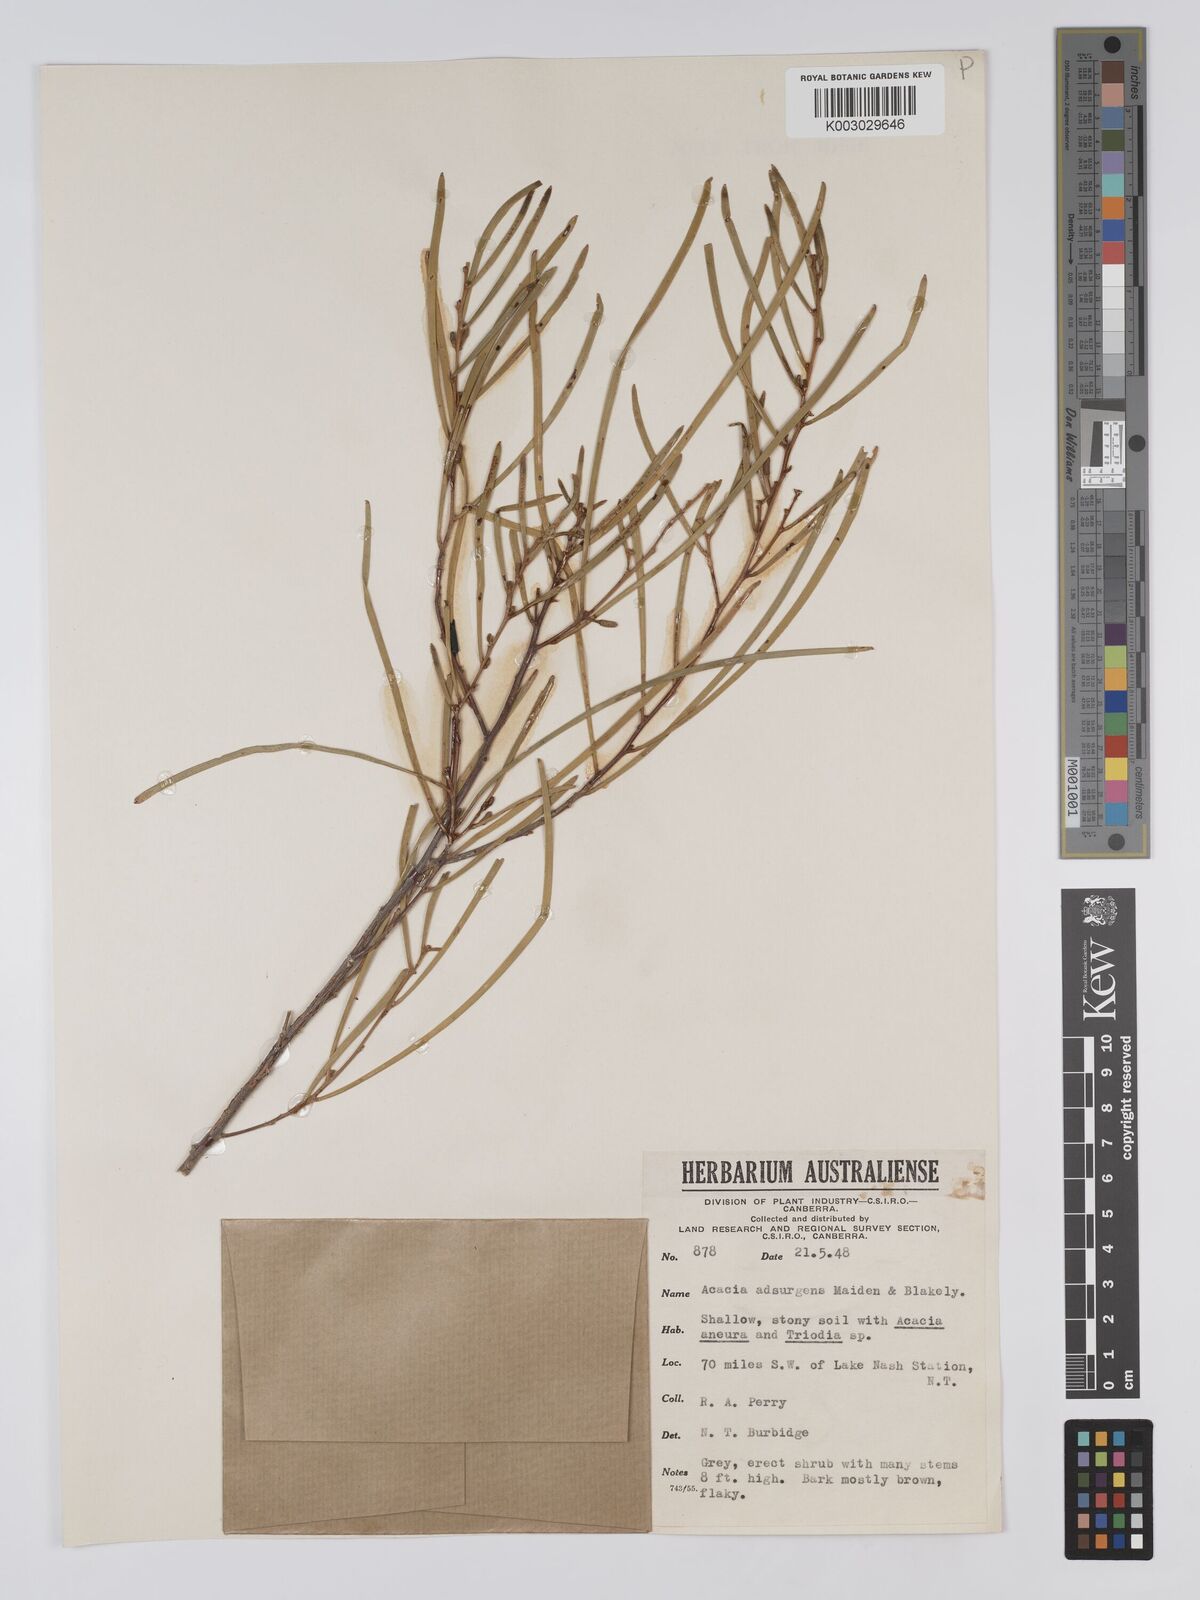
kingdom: Plantae
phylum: Tracheophyta
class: Magnoliopsida
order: Fabales
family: Fabaceae
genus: Acacia
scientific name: Acacia adsurgens
